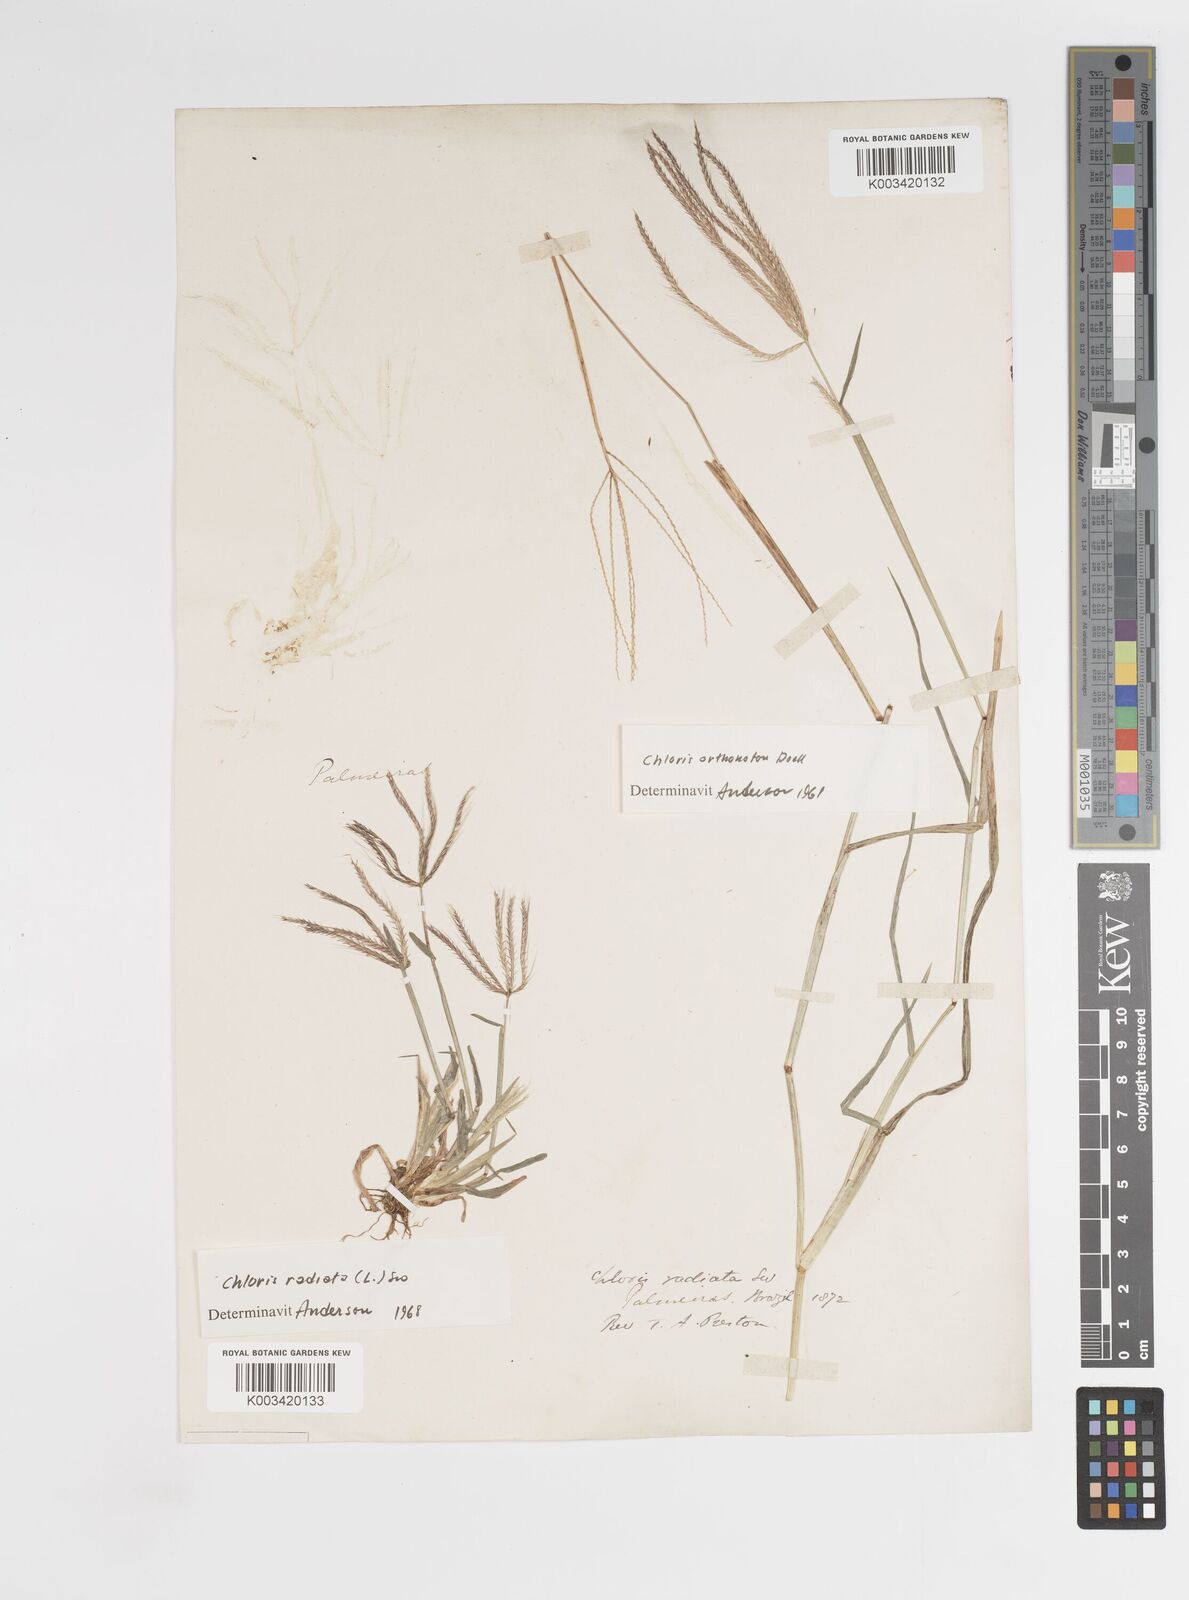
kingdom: Plantae
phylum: Tracheophyta
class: Liliopsida
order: Poales
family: Poaceae
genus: Chloris
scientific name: Chloris radiata
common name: Radiate fingergrass
